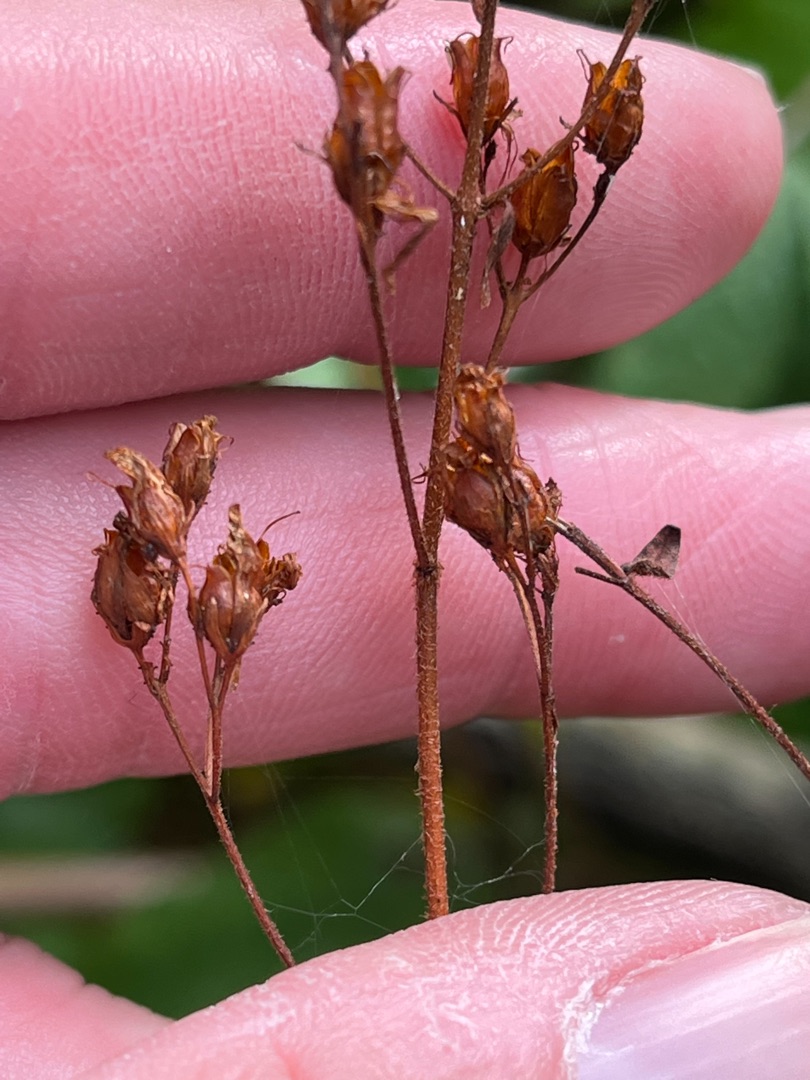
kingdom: Plantae
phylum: Tracheophyta
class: Magnoliopsida
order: Malpighiales
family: Hypericaceae
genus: Hypericum
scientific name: Hypericum hirsutum
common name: Lådden perikon
